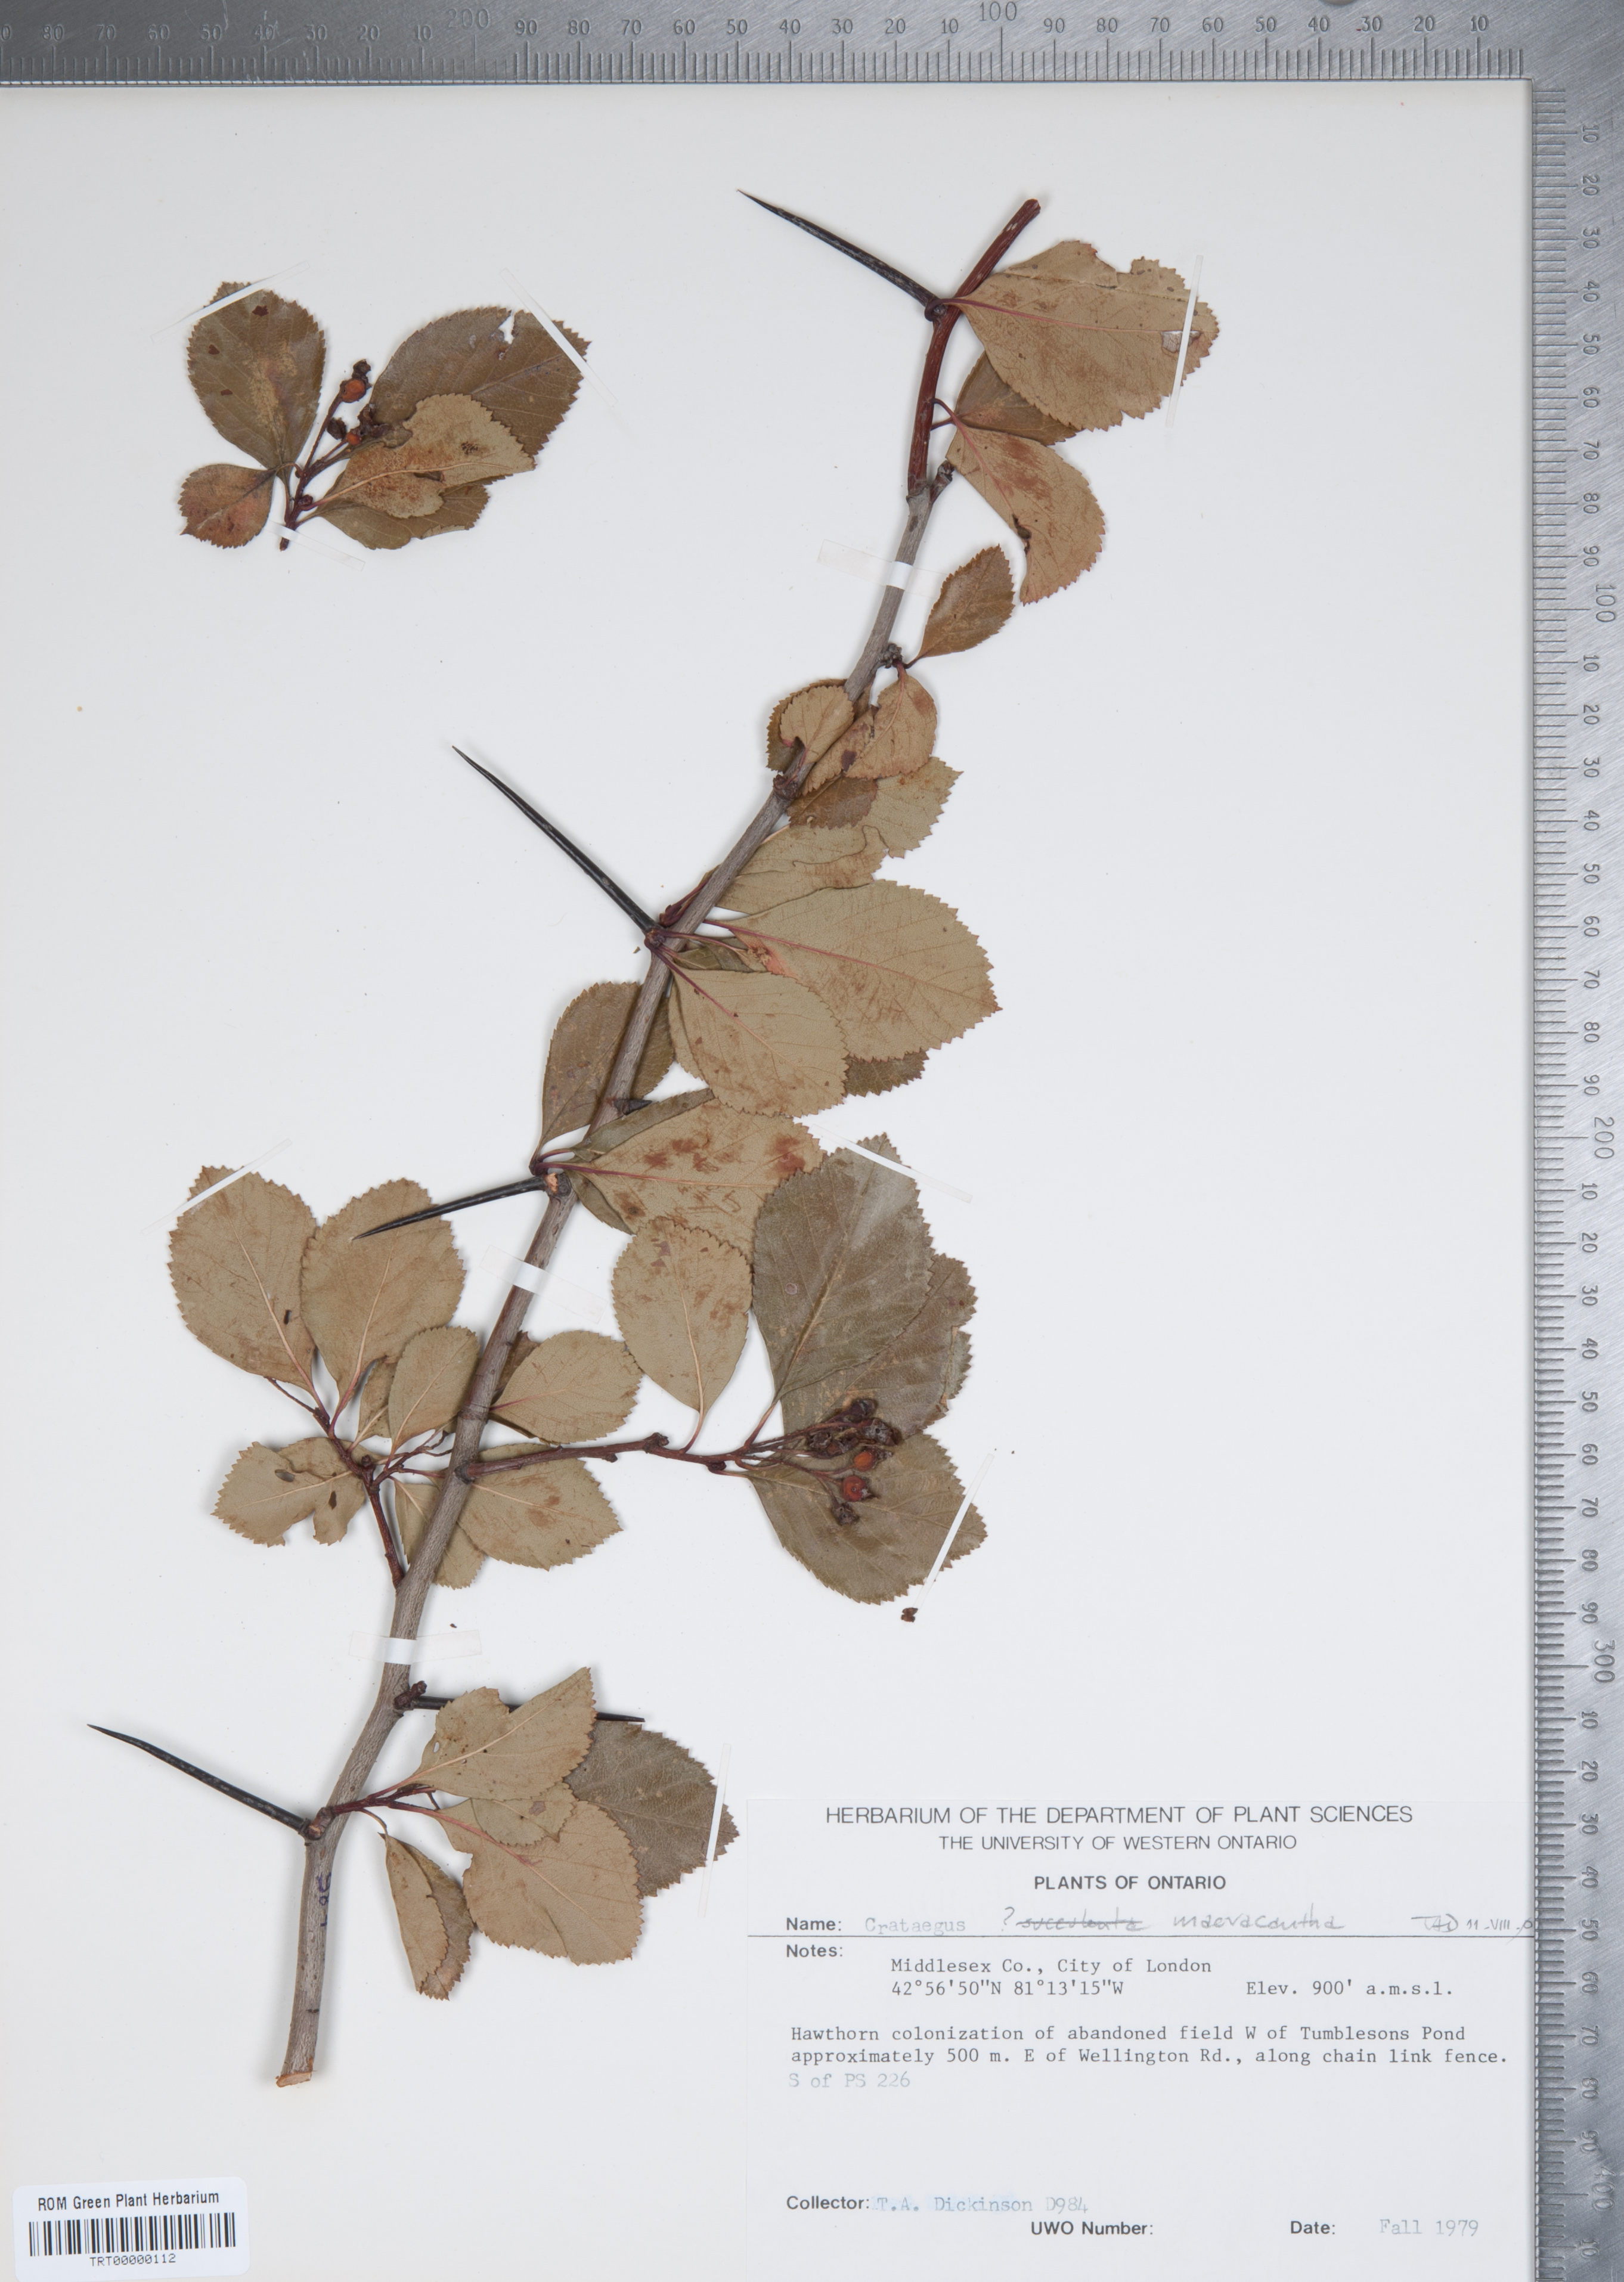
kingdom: Plantae
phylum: Tracheophyta
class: Magnoliopsida
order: Rosales
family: Rosaceae
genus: Crataegus
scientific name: Crataegus macracantha
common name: Large-thorn hawthorn
